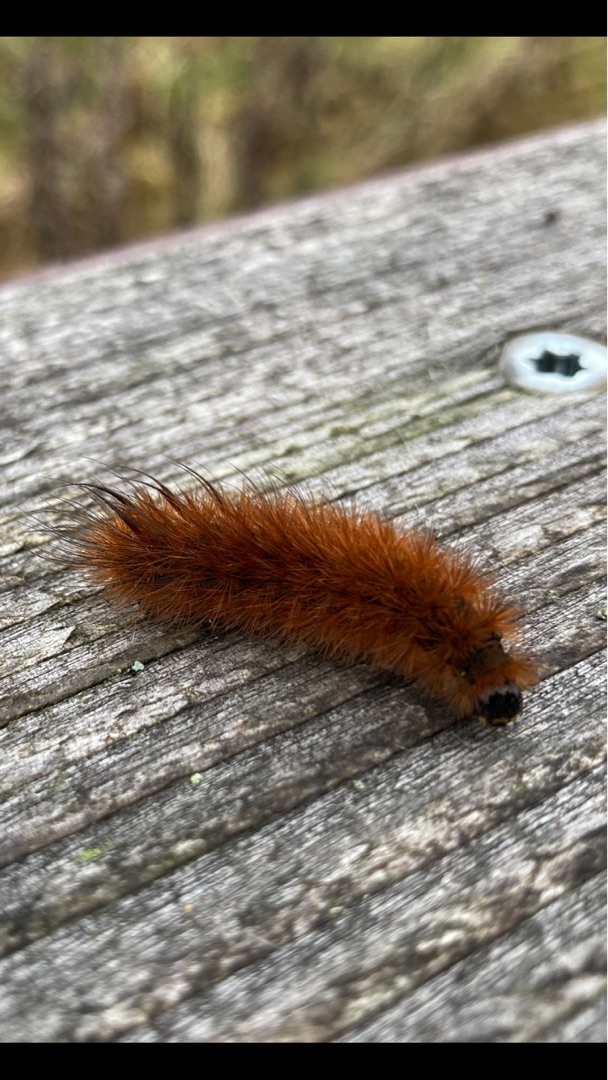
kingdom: Animalia
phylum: Arthropoda
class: Insecta
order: Lepidoptera
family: Erebidae
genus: Phragmatobia
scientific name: Phragmatobia fuliginosa
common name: Kanelbjørn
